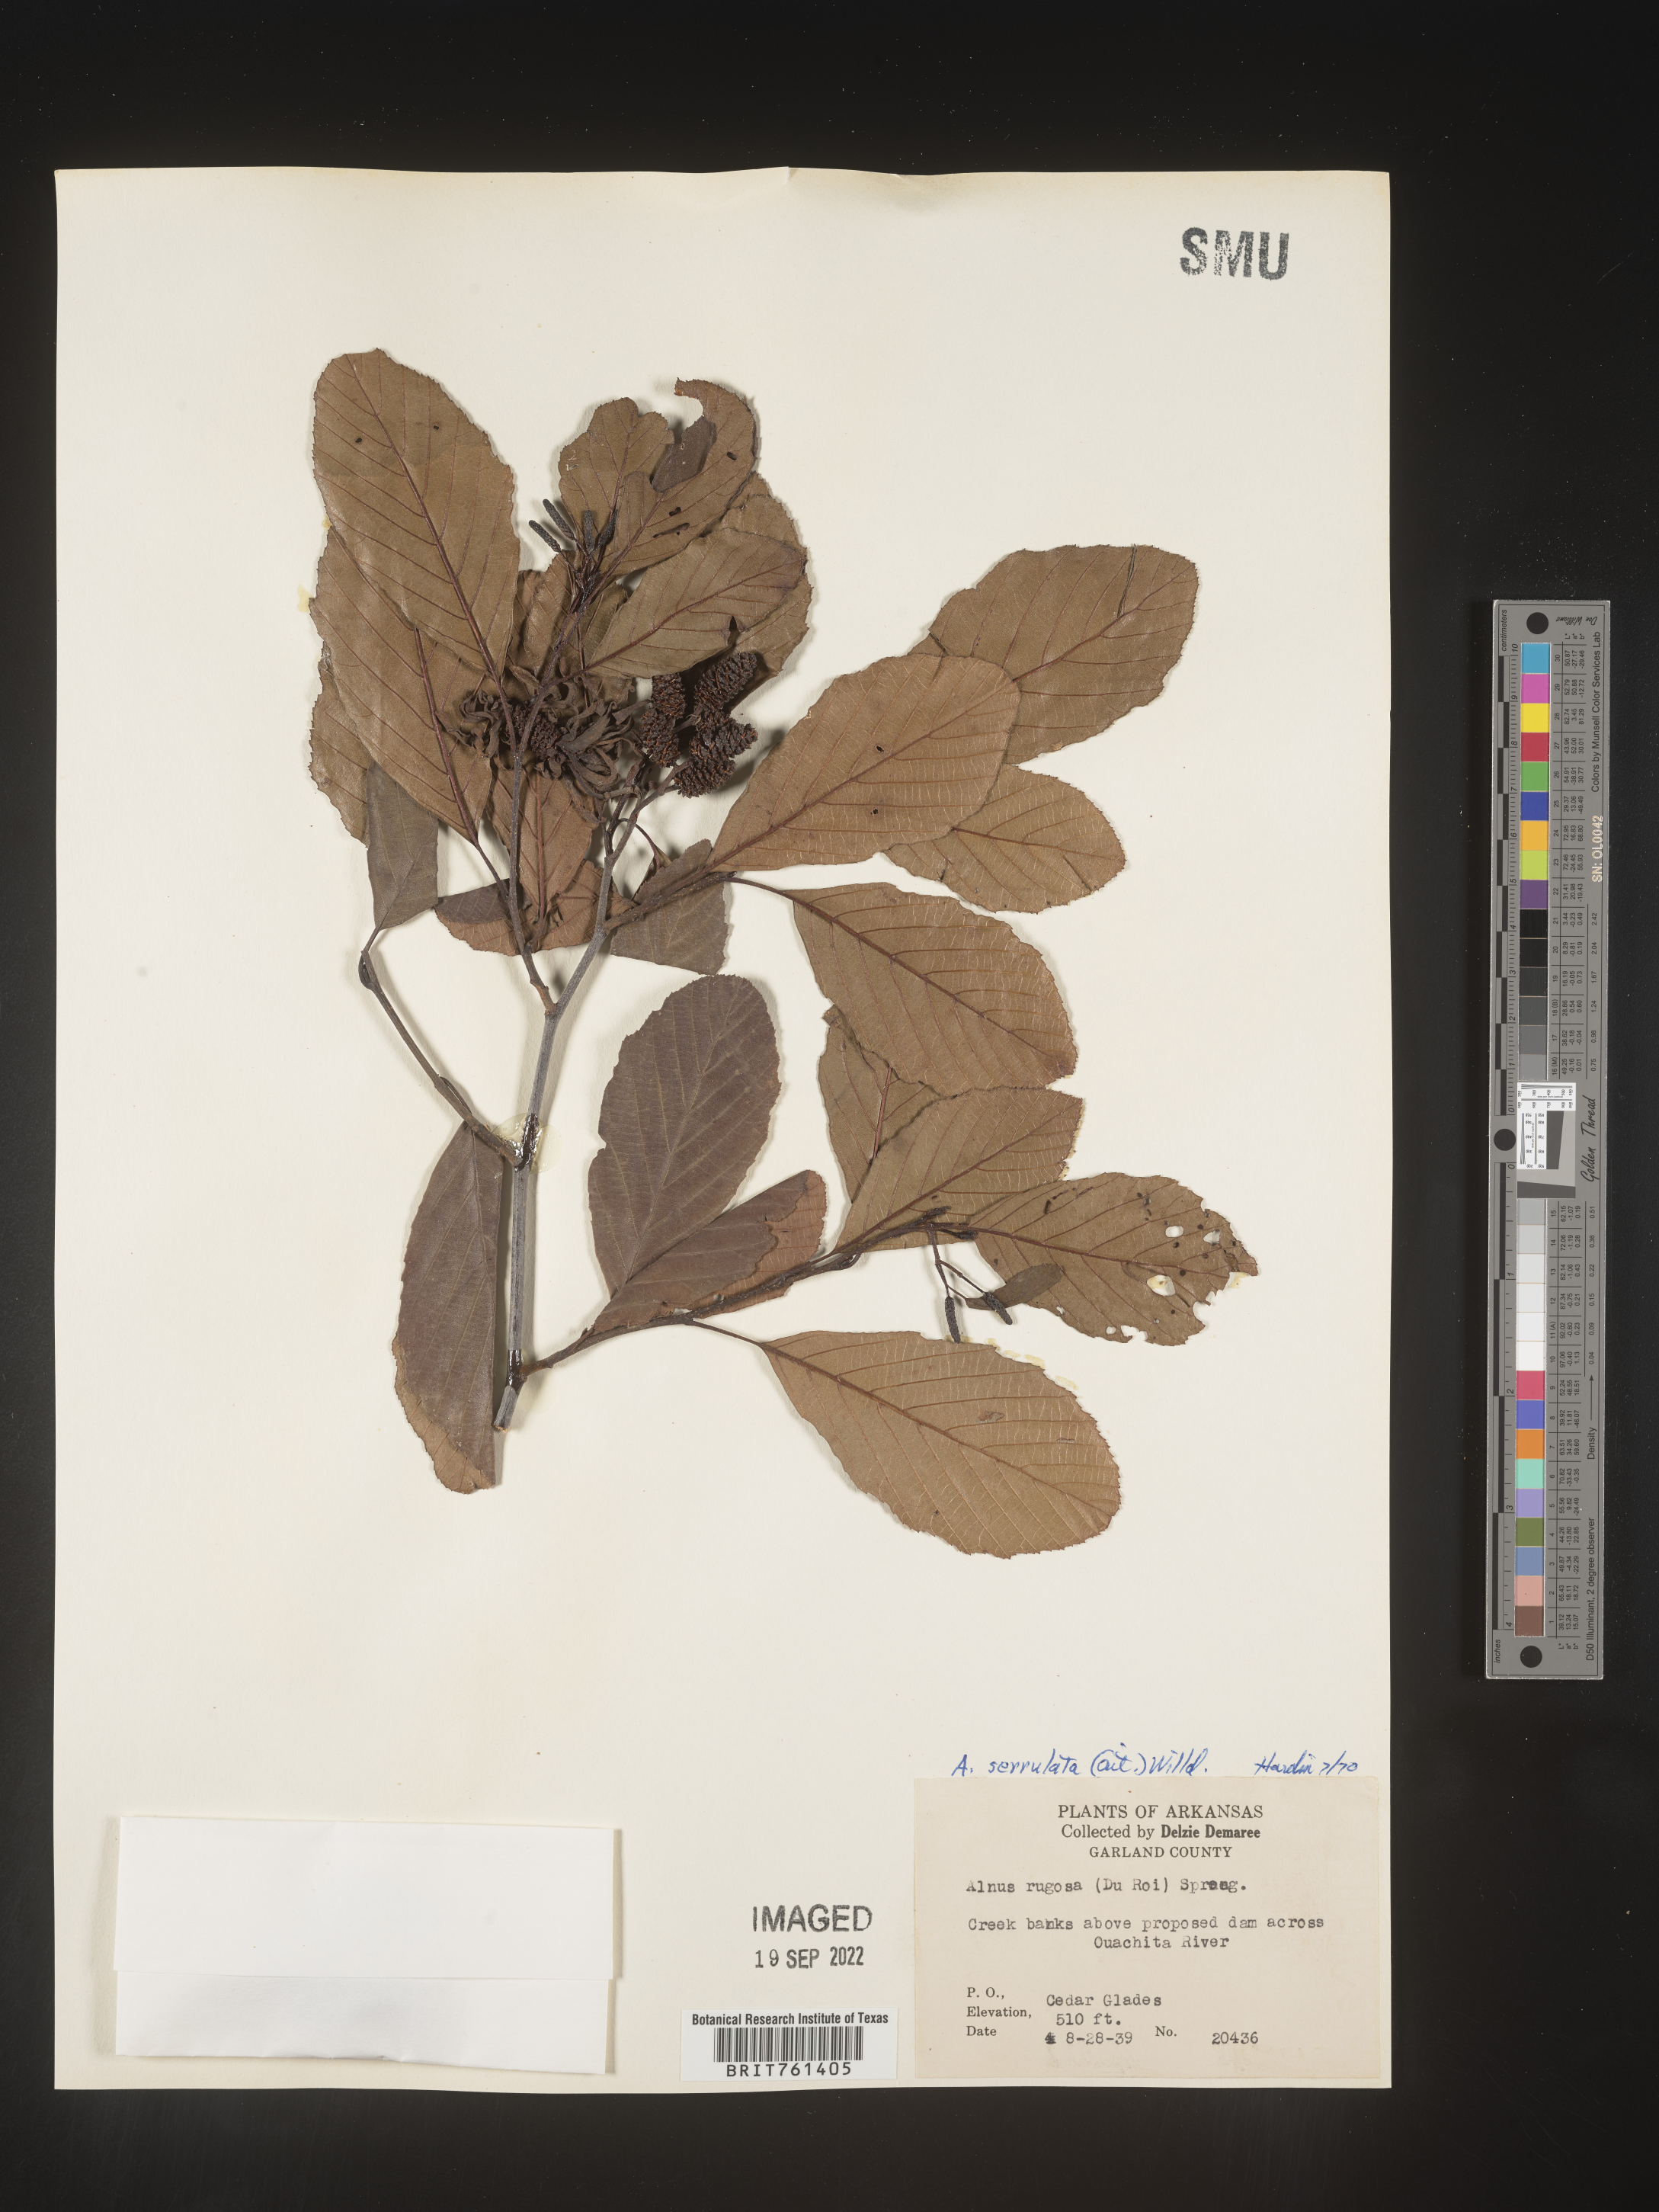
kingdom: Plantae
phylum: Tracheophyta
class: Magnoliopsida
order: Fagales
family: Betulaceae
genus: Alnus
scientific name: Alnus serrulata
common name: Hazel alder
